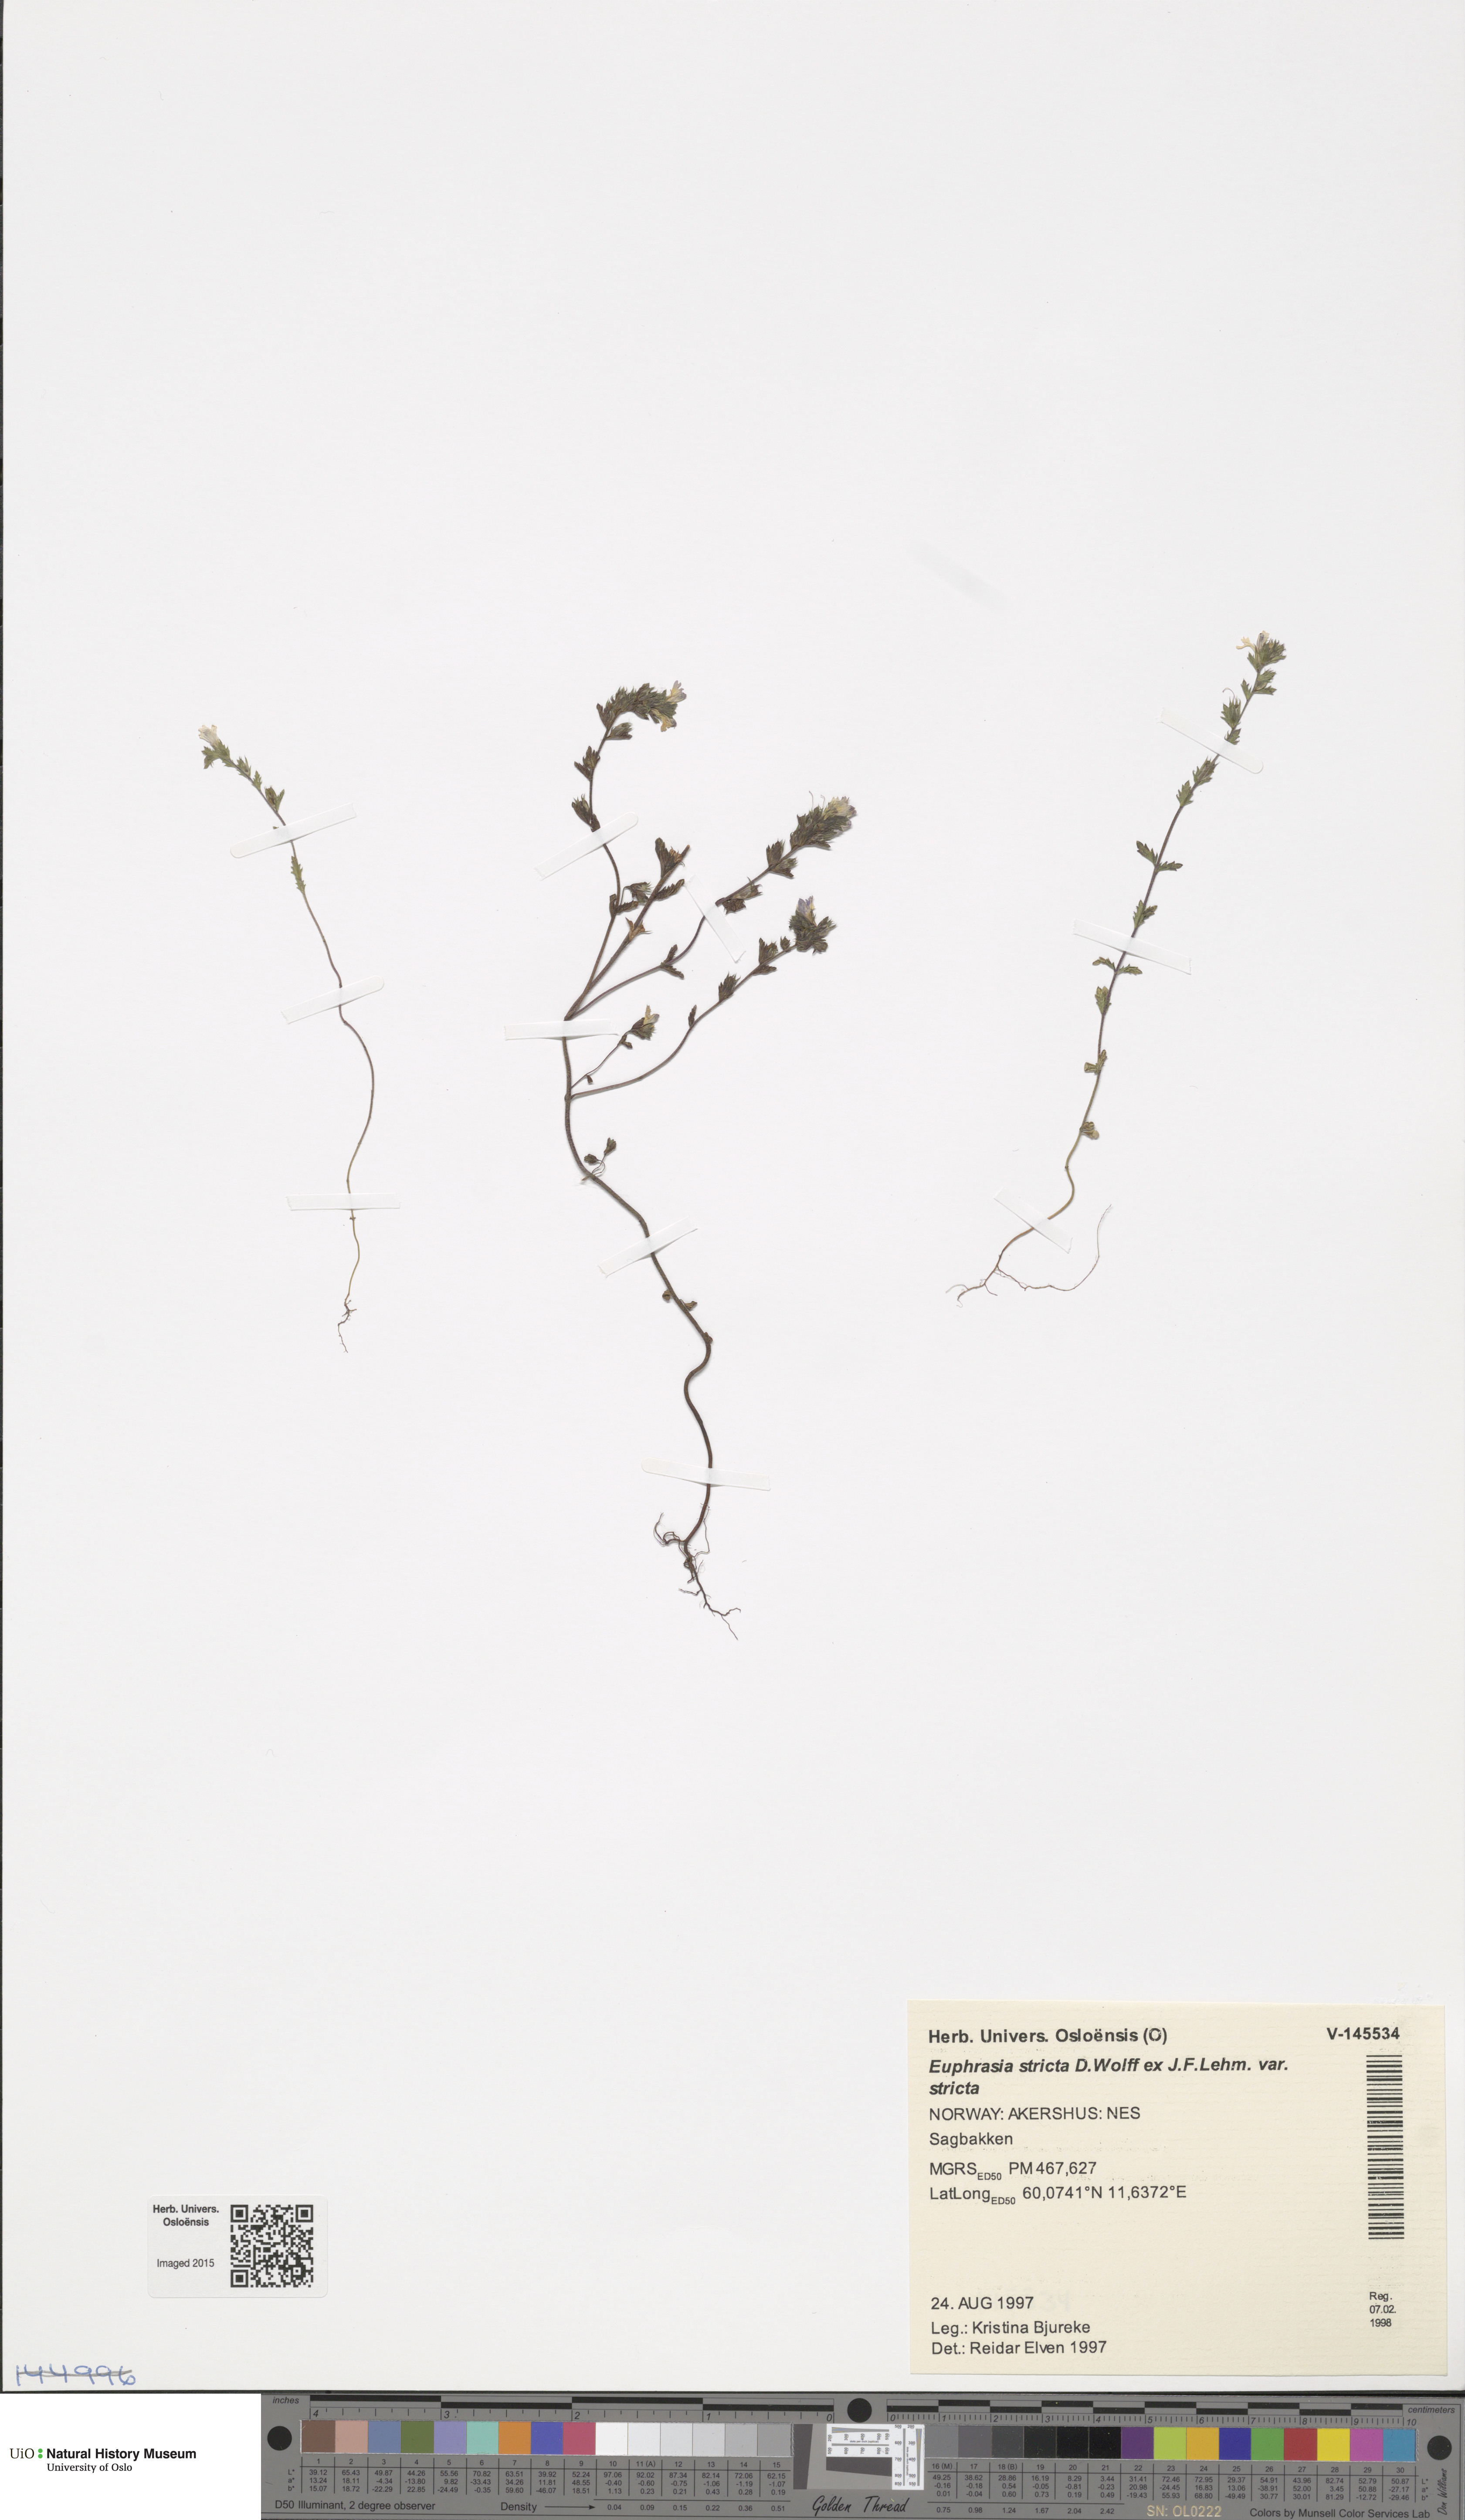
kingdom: Plantae
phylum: Tracheophyta
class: Magnoliopsida
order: Lamiales
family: Orobanchaceae
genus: Euphrasia
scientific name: Euphrasia stricta
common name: Drug eyebright
